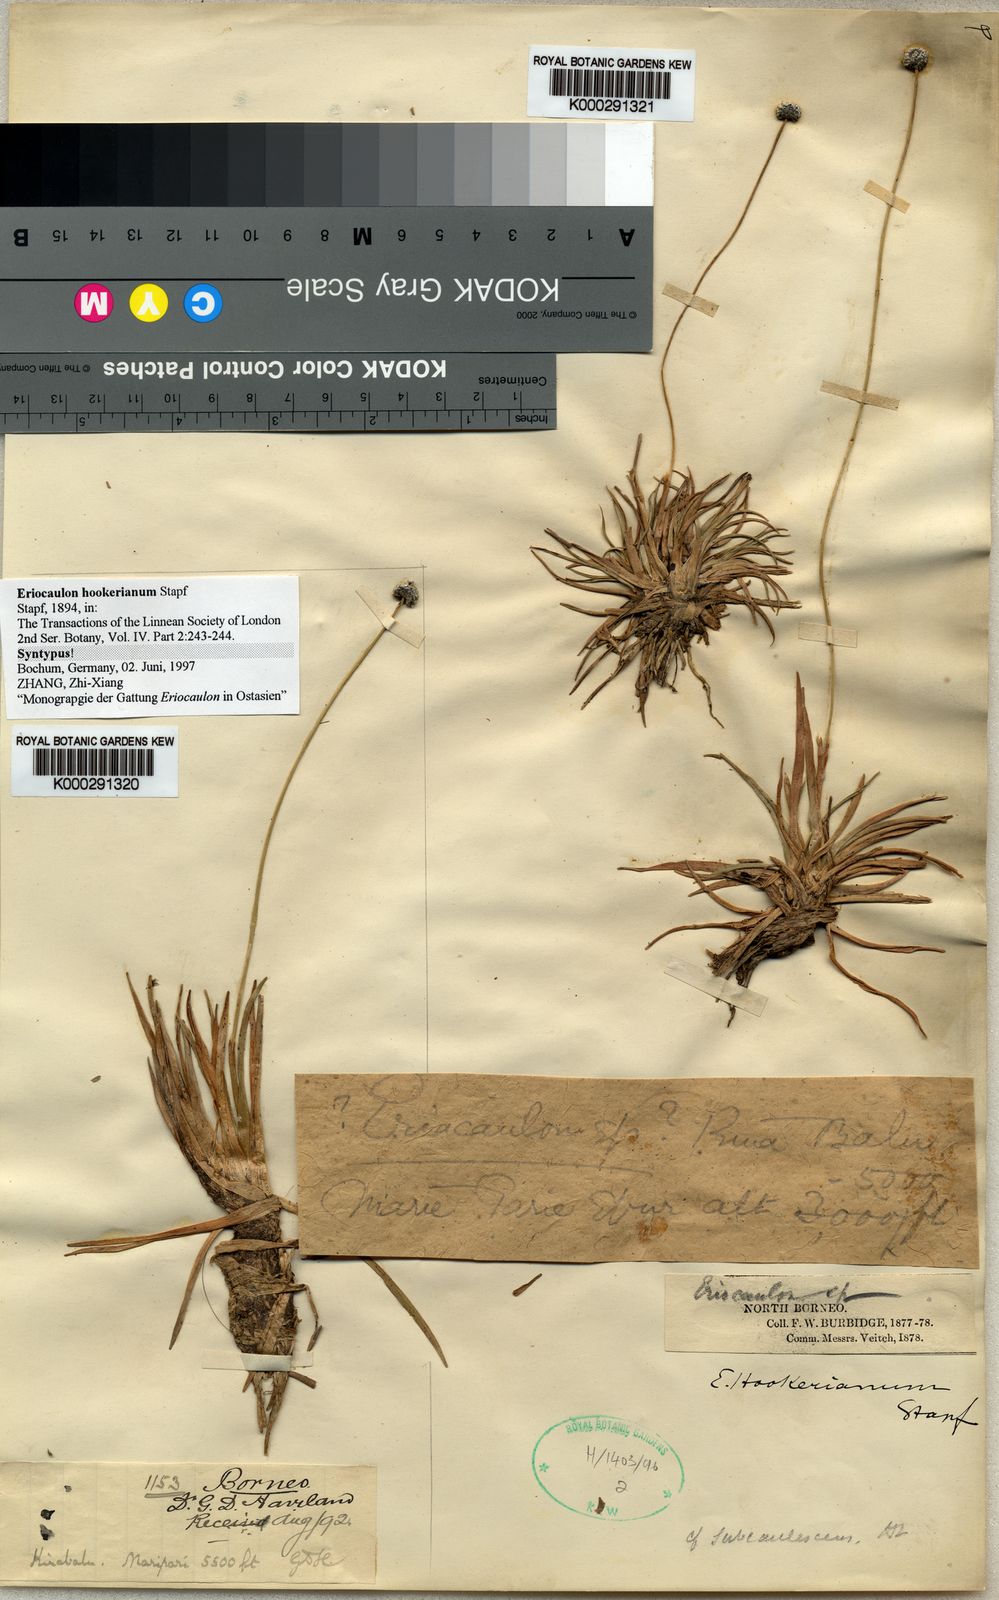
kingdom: Plantae
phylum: Tracheophyta
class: Liliopsida
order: Poales
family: Eriocaulaceae
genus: Eriocaulon
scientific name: Eriocaulon hookerianum
